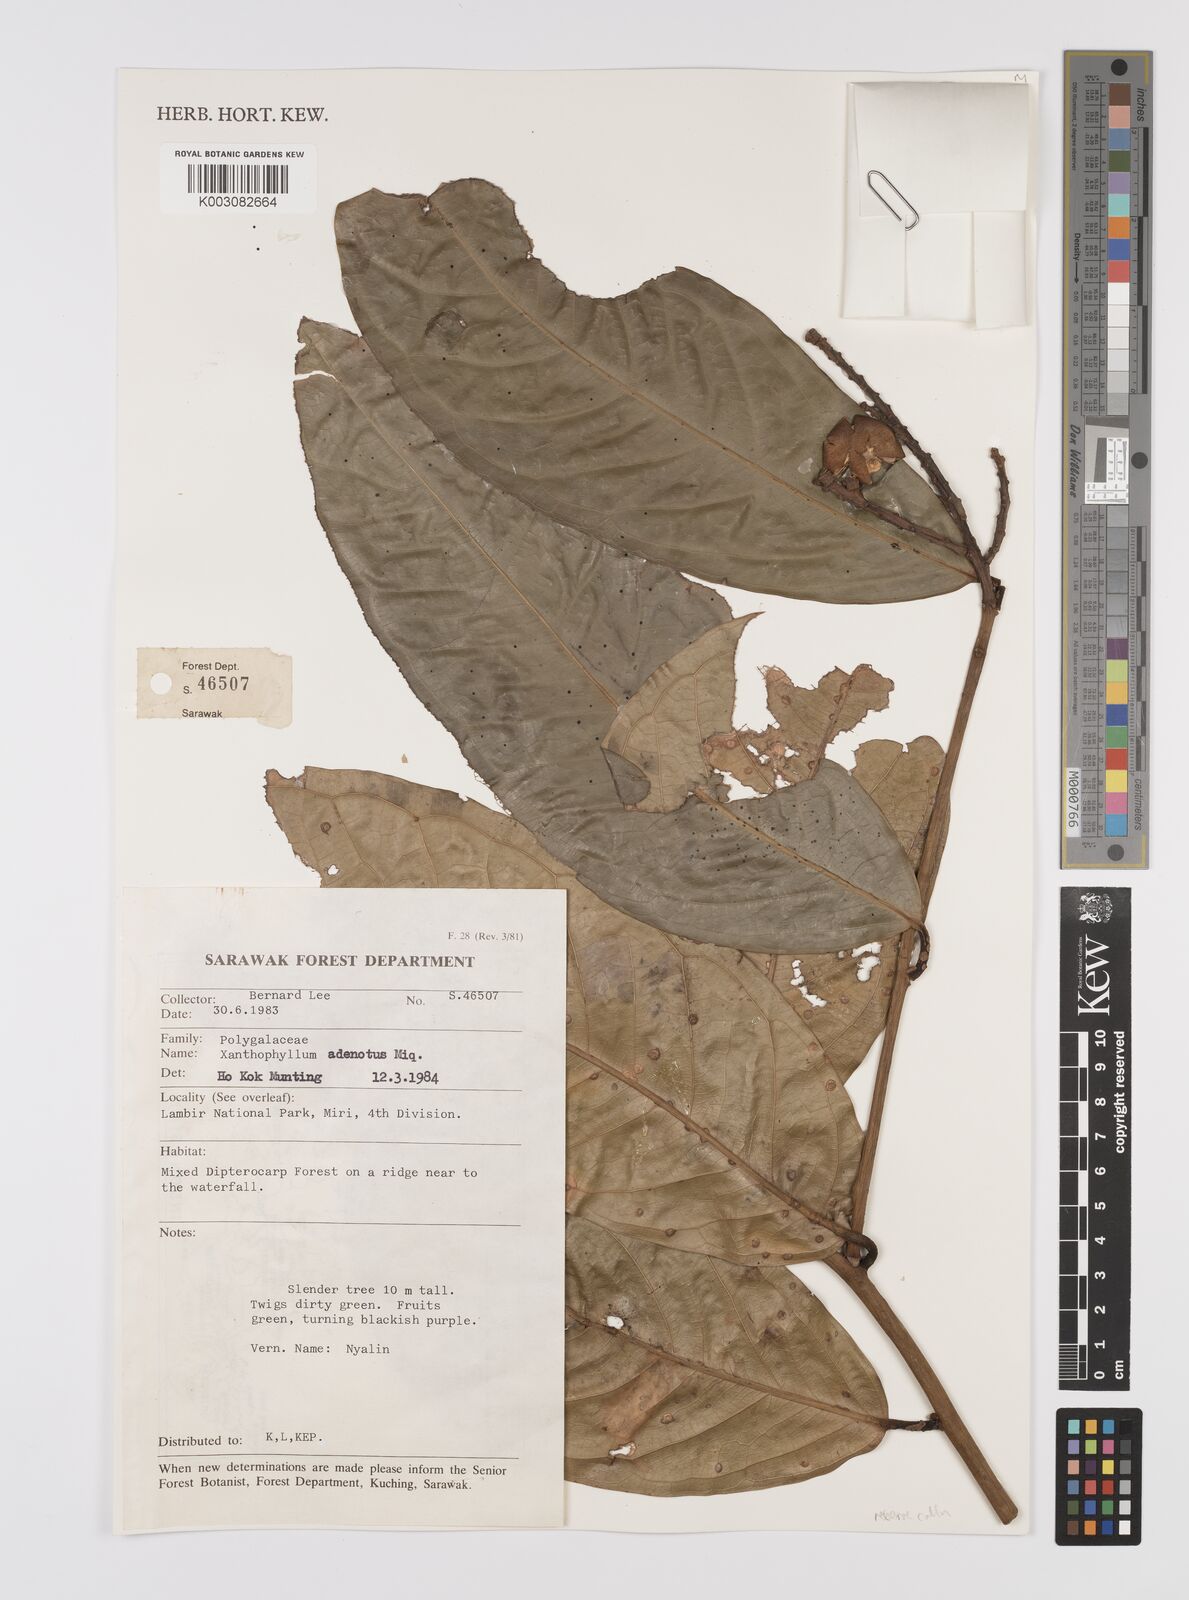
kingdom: Plantae
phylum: Tracheophyta
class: Magnoliopsida
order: Fabales
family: Polygalaceae
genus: Xanthophyllum
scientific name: Xanthophyllum adenotus
